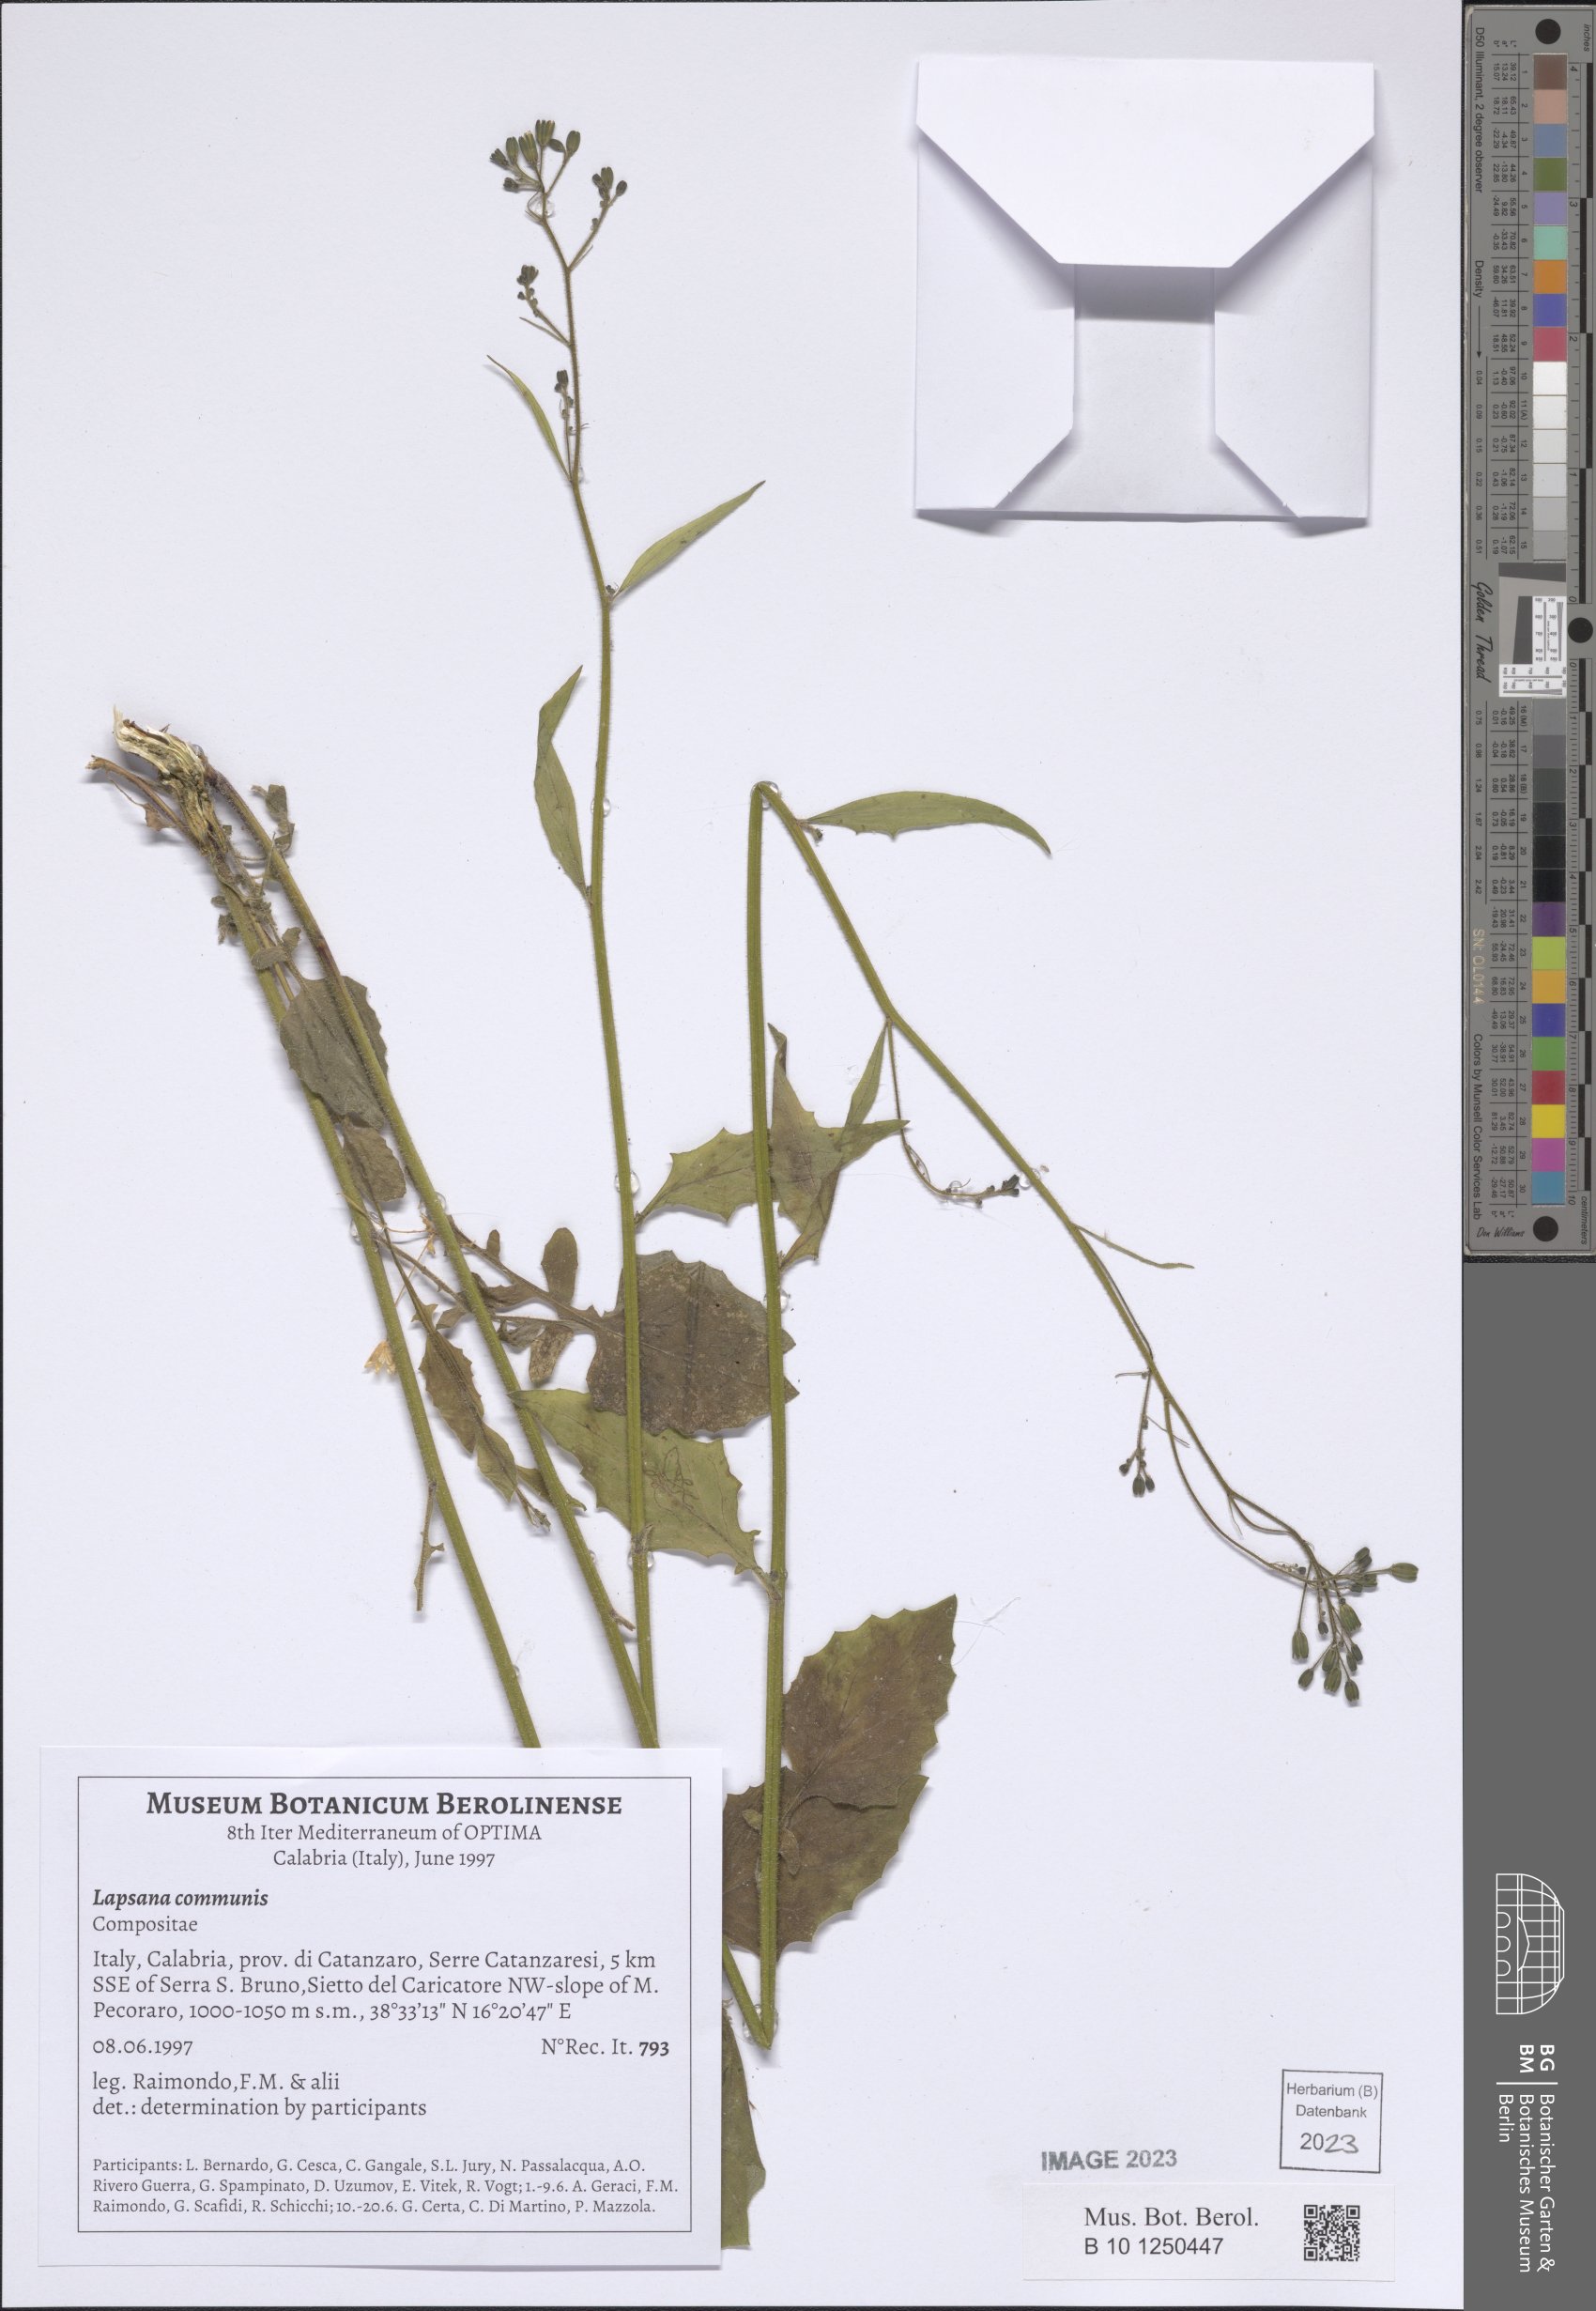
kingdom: Plantae
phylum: Tracheophyta
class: Magnoliopsida
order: Asterales
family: Asteraceae
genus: Lapsana
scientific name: Lapsana communis
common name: Nipplewort
